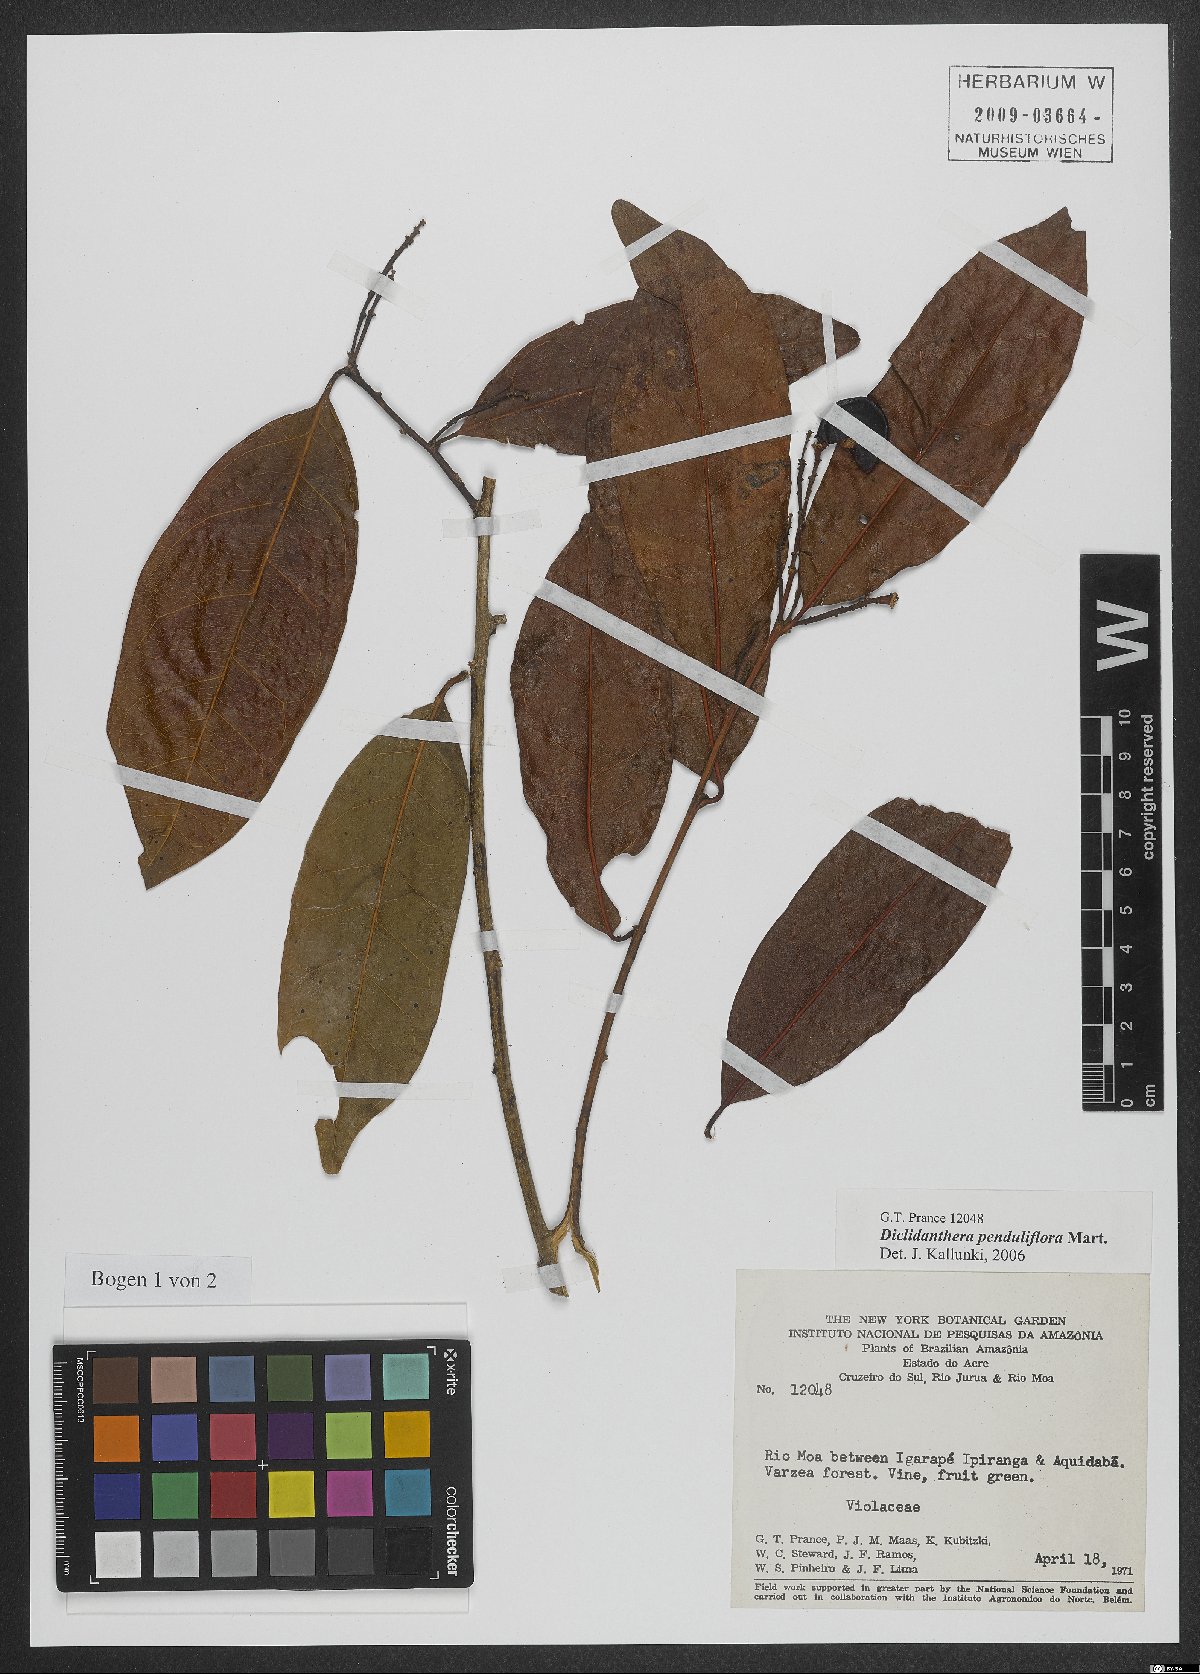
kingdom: Plantae
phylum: Tracheophyta
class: Magnoliopsida
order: Fabales
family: Polygalaceae
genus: Diclidanthera
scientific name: Diclidanthera penduliflora
